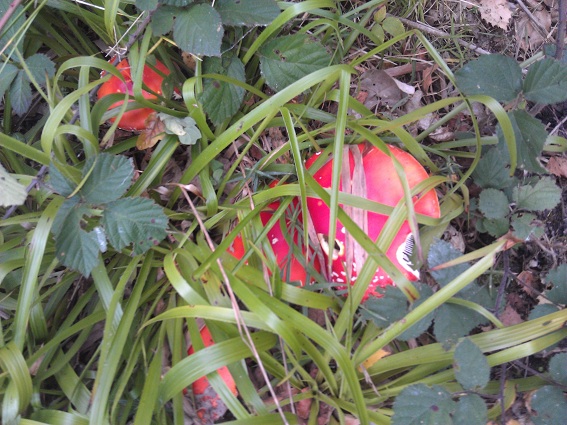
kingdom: Fungi
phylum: Basidiomycota
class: Agaricomycetes
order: Agaricales
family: Amanitaceae
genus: Amanita
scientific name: Amanita muscaria
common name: rød fluesvamp
